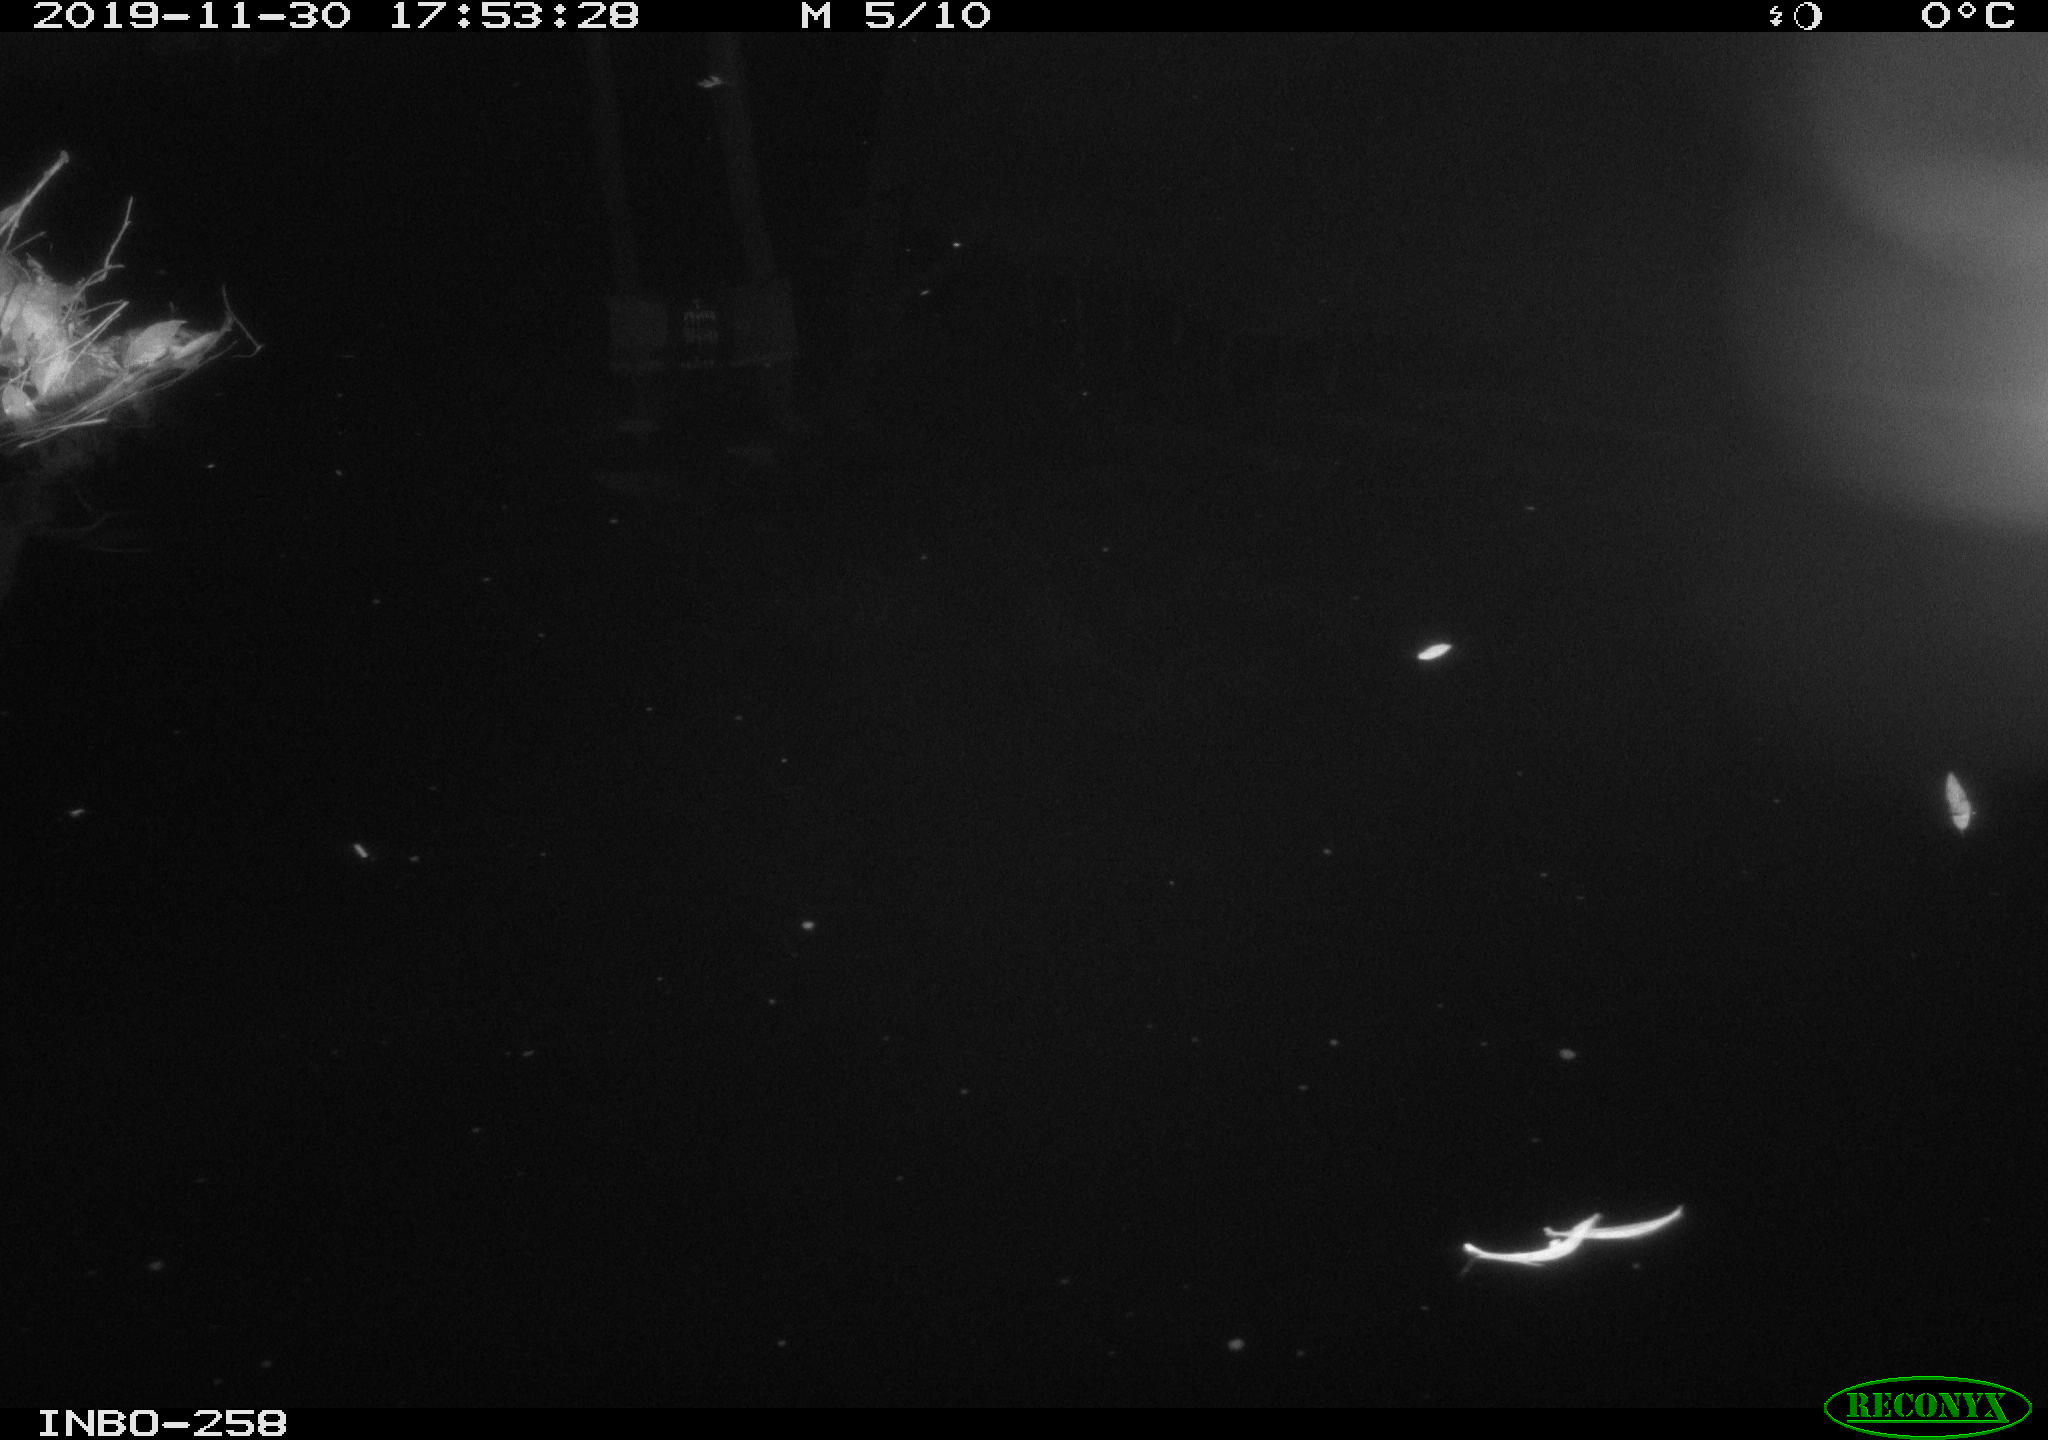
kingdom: Animalia
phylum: Chordata
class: Aves
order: Anseriformes
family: Anatidae
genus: Anas
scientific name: Anas platyrhynchos
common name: Mallard
